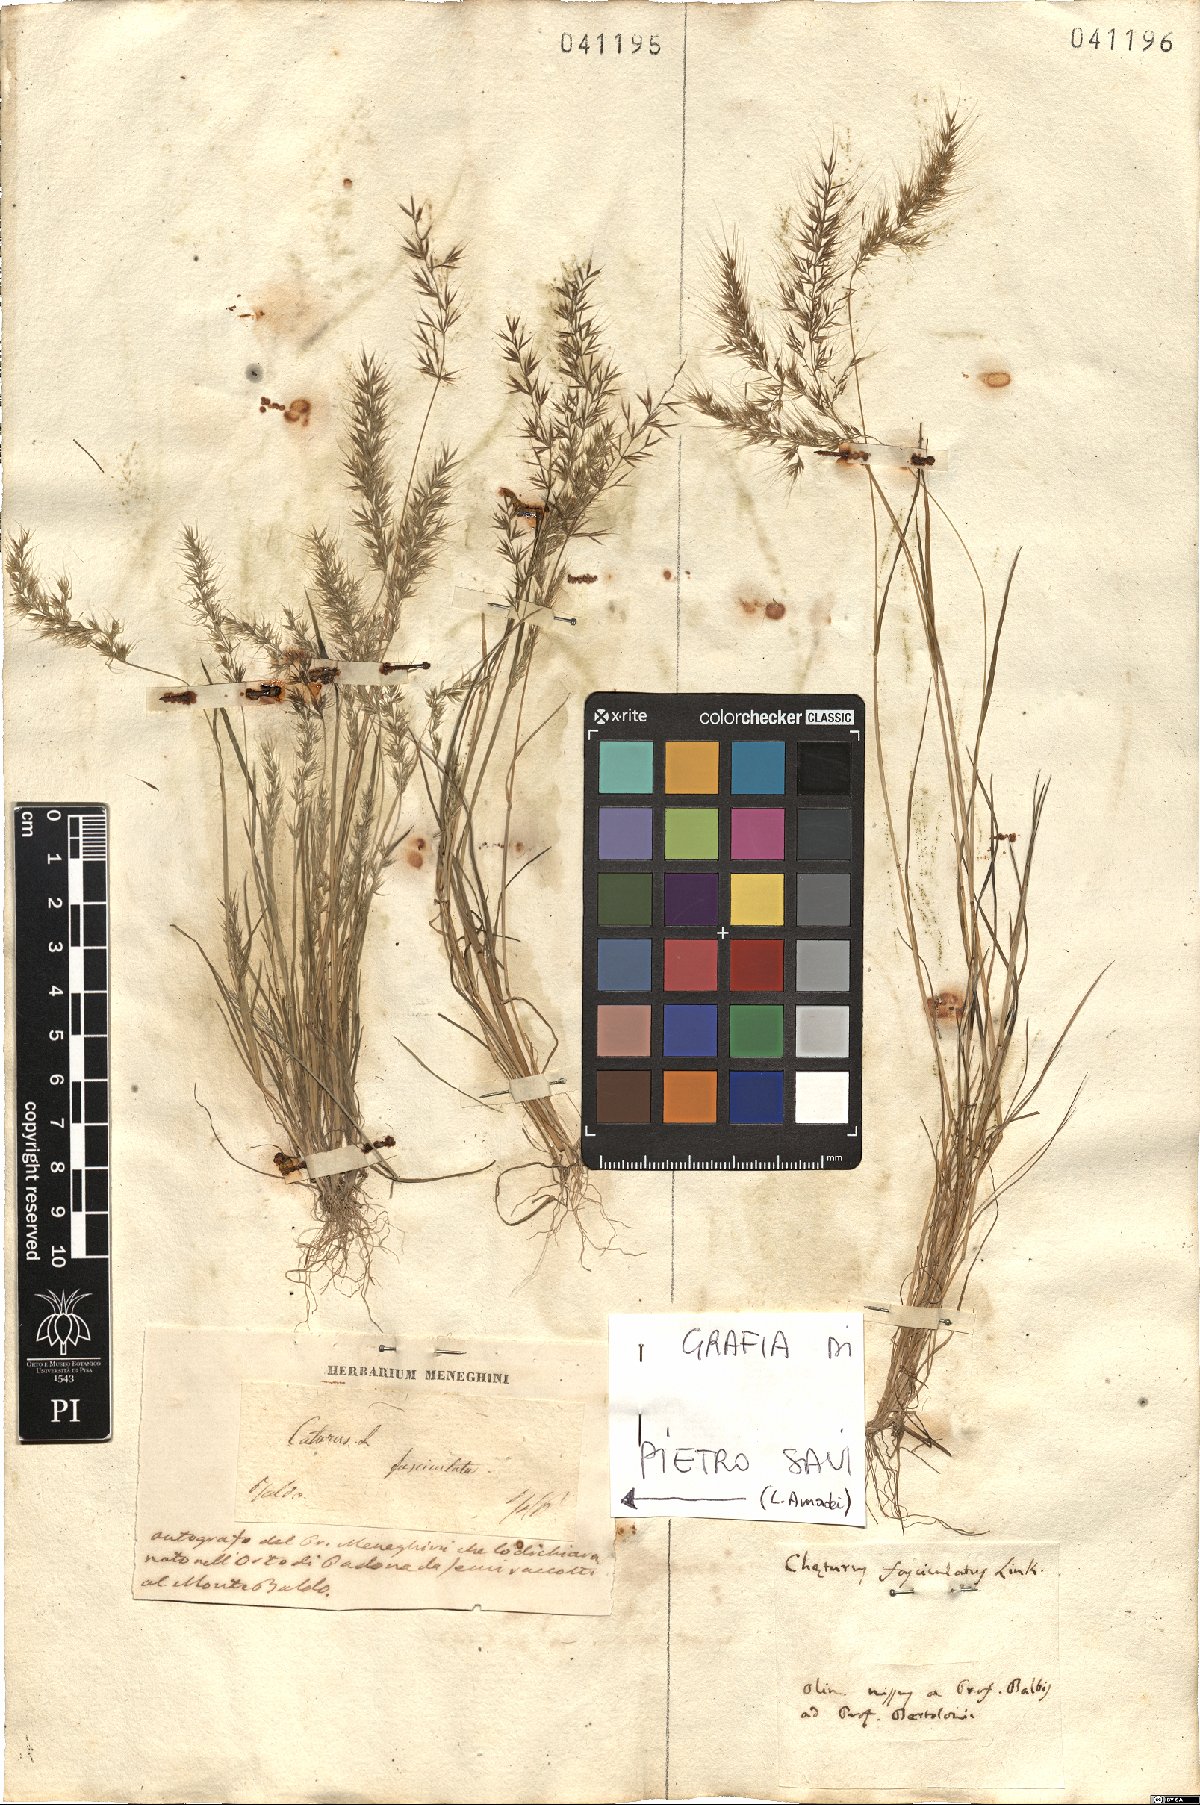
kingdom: Plantae
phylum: Tracheophyta
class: Liliopsida
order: Poales
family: Poaceae
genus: Agrostis
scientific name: Agrostis subspicata
